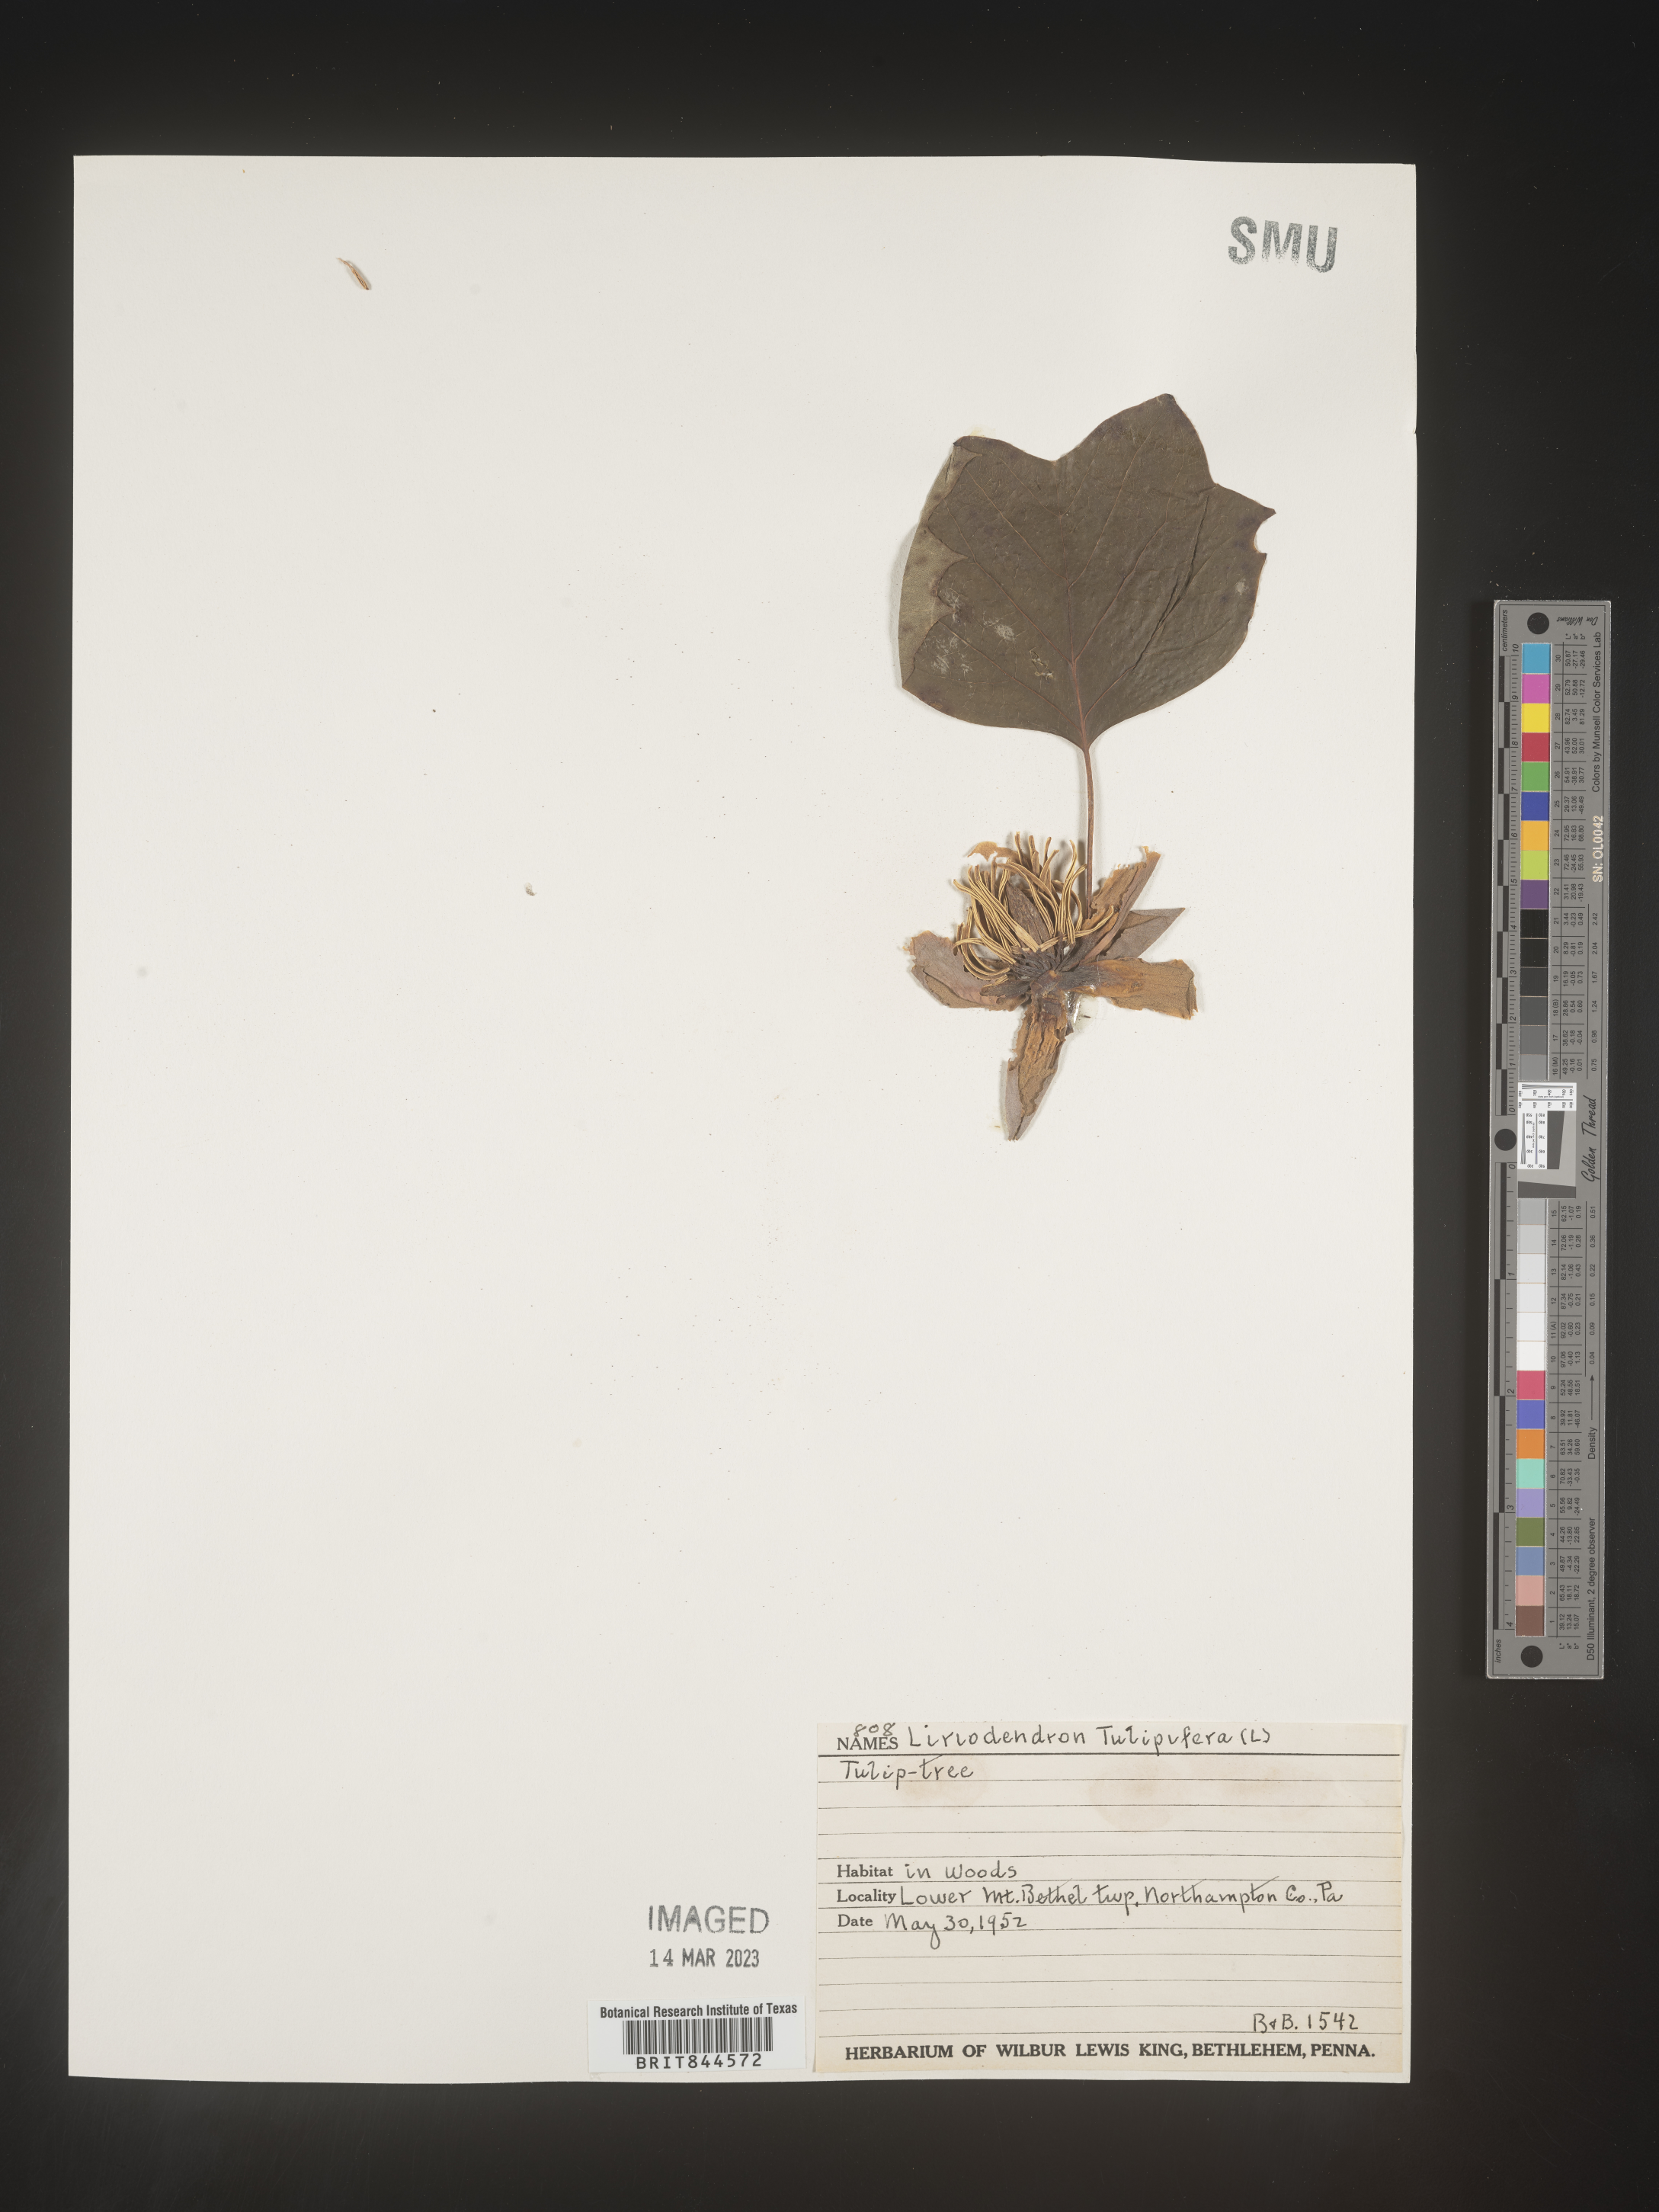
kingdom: Plantae
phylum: Tracheophyta
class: Magnoliopsida
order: Magnoliales
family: Magnoliaceae
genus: Liriodendron
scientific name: Liriodendron tulipifera
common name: Tulip tree
